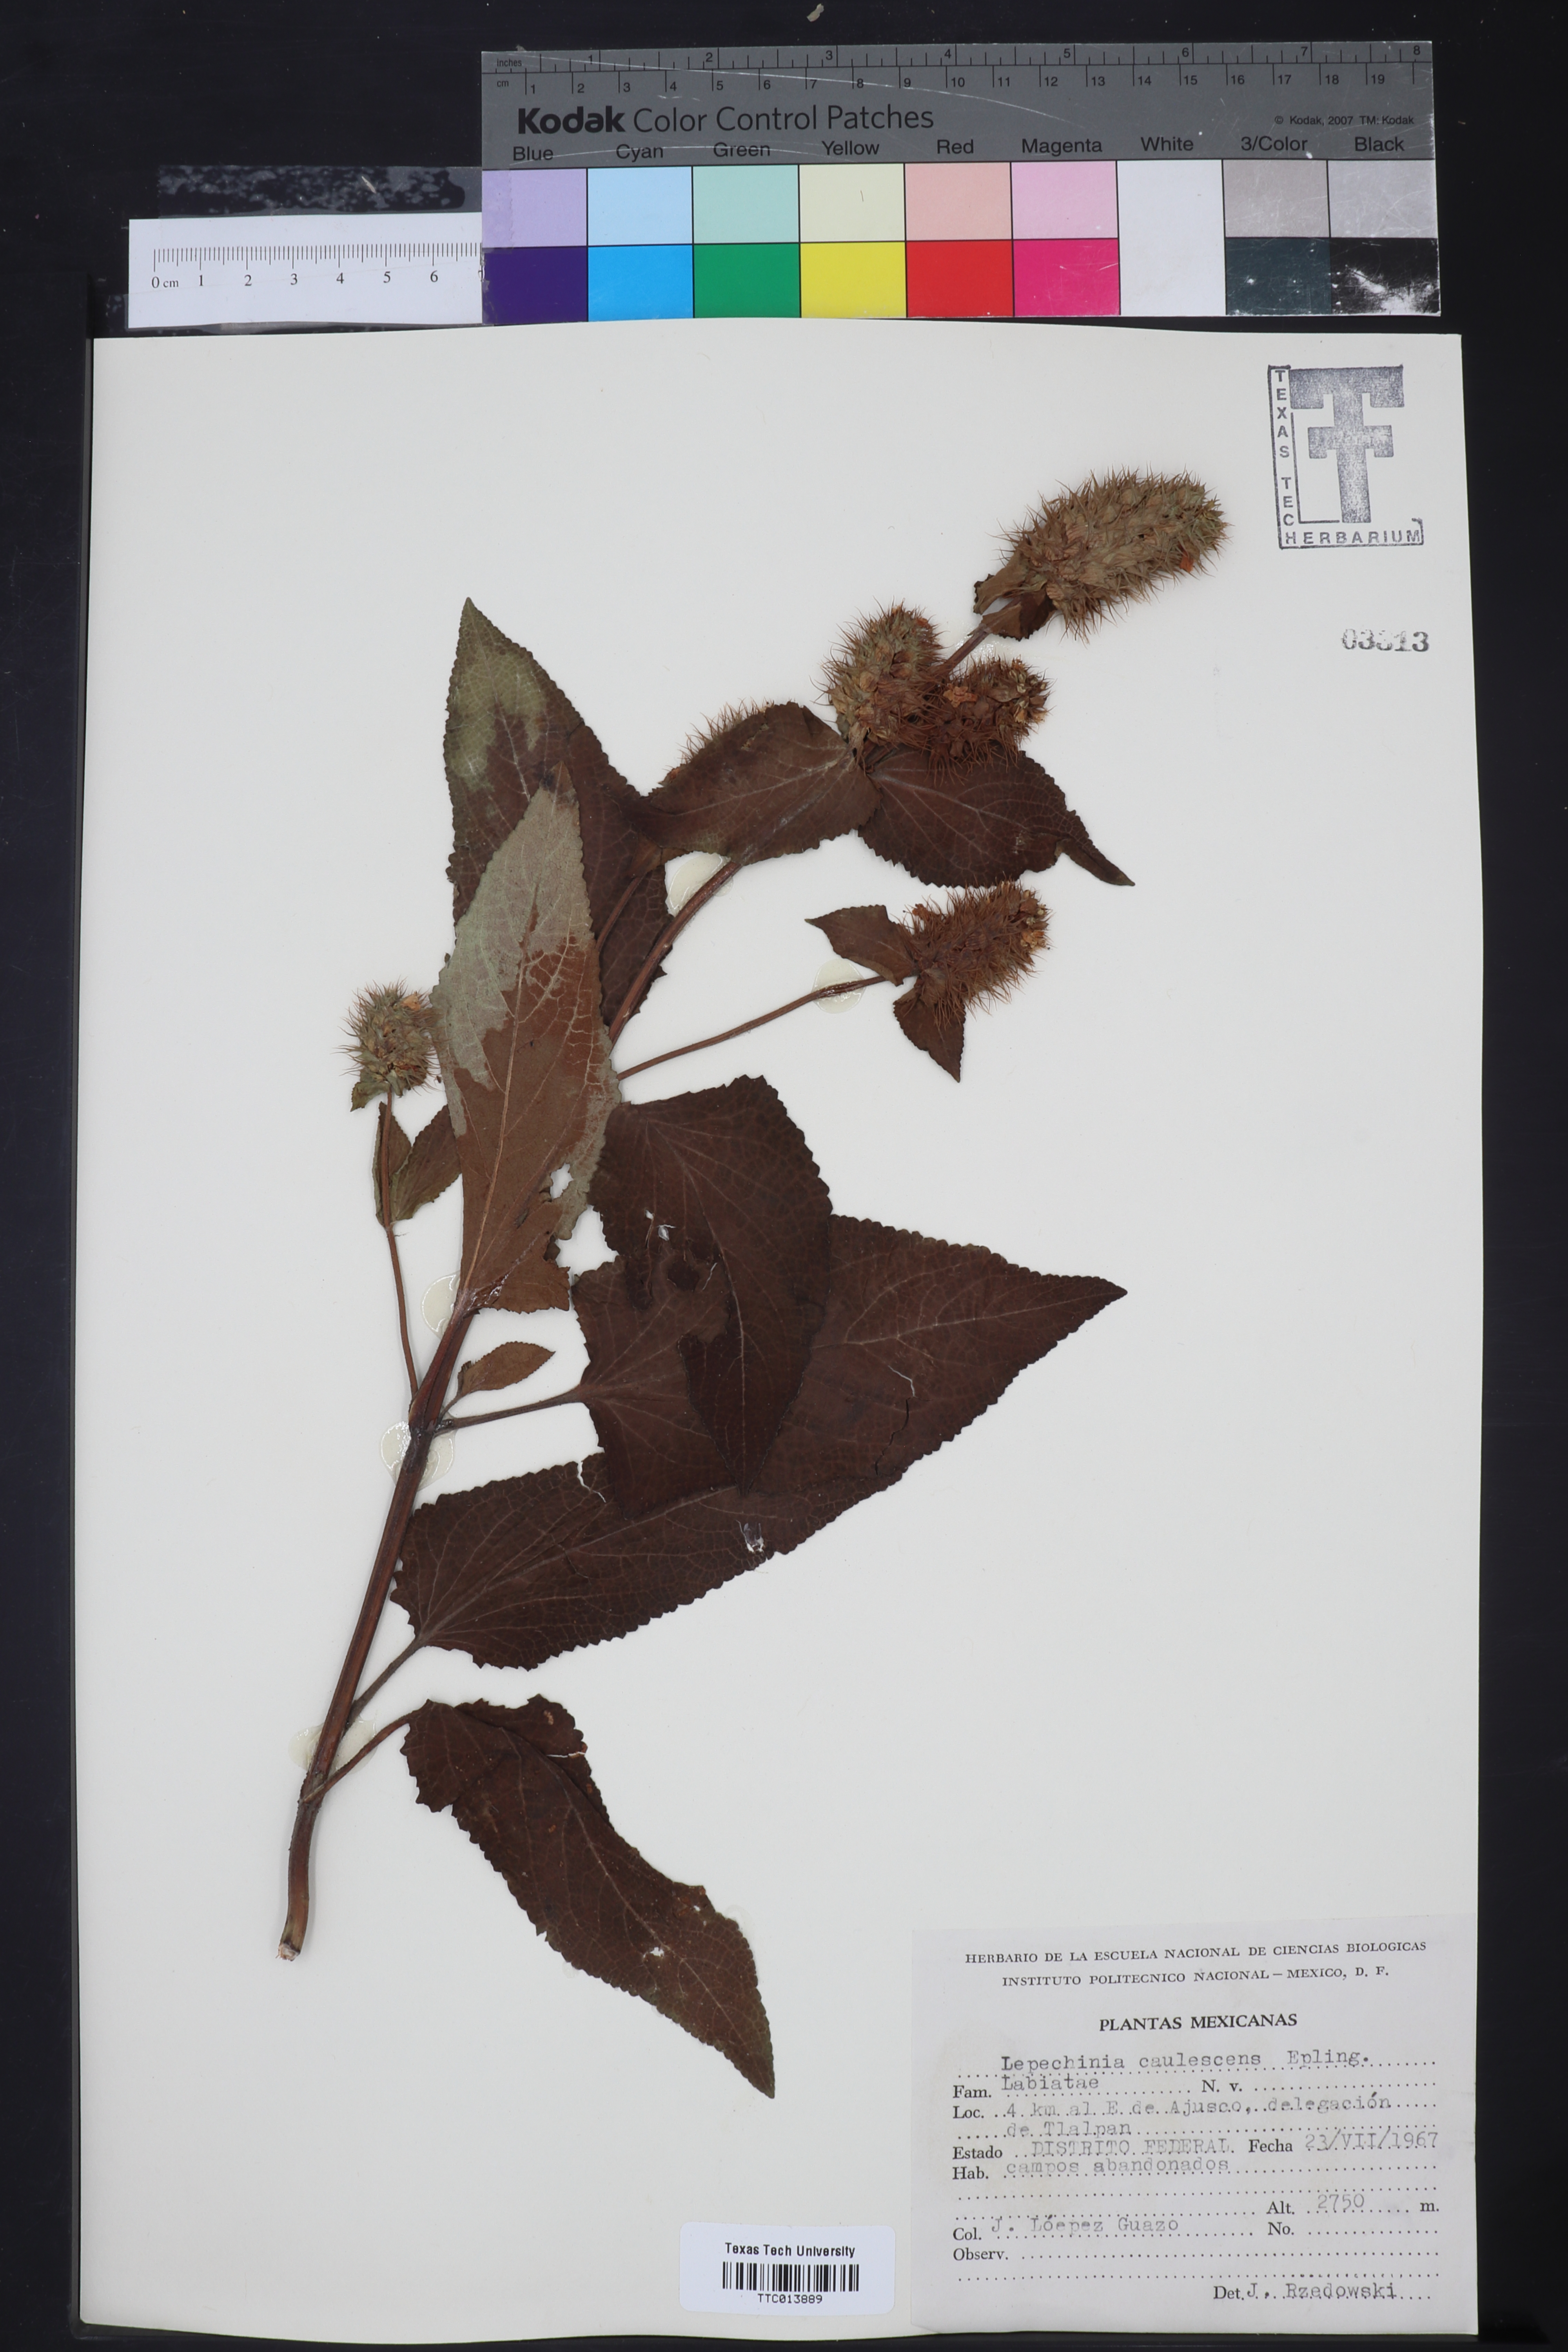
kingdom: Plantae
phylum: Tracheophyta
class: Magnoliopsida
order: Lamiales
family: Lamiaceae
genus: Lepechinia
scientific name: Lepechinia caulescens
